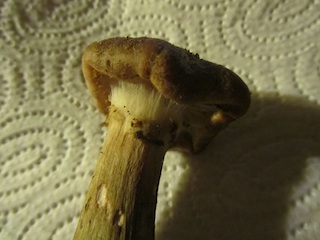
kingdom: Fungi
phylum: Basidiomycota
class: Agaricomycetes
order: Agaricales
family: Physalacriaceae
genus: Armillaria
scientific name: Armillaria ostoyae
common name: mørk honningsvamp
